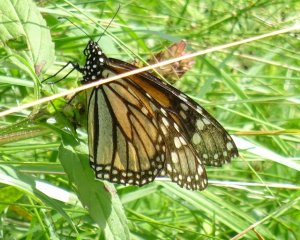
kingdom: Animalia
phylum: Arthropoda
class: Insecta
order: Lepidoptera
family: Nymphalidae
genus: Danaus
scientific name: Danaus plexippus
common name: Monarch
